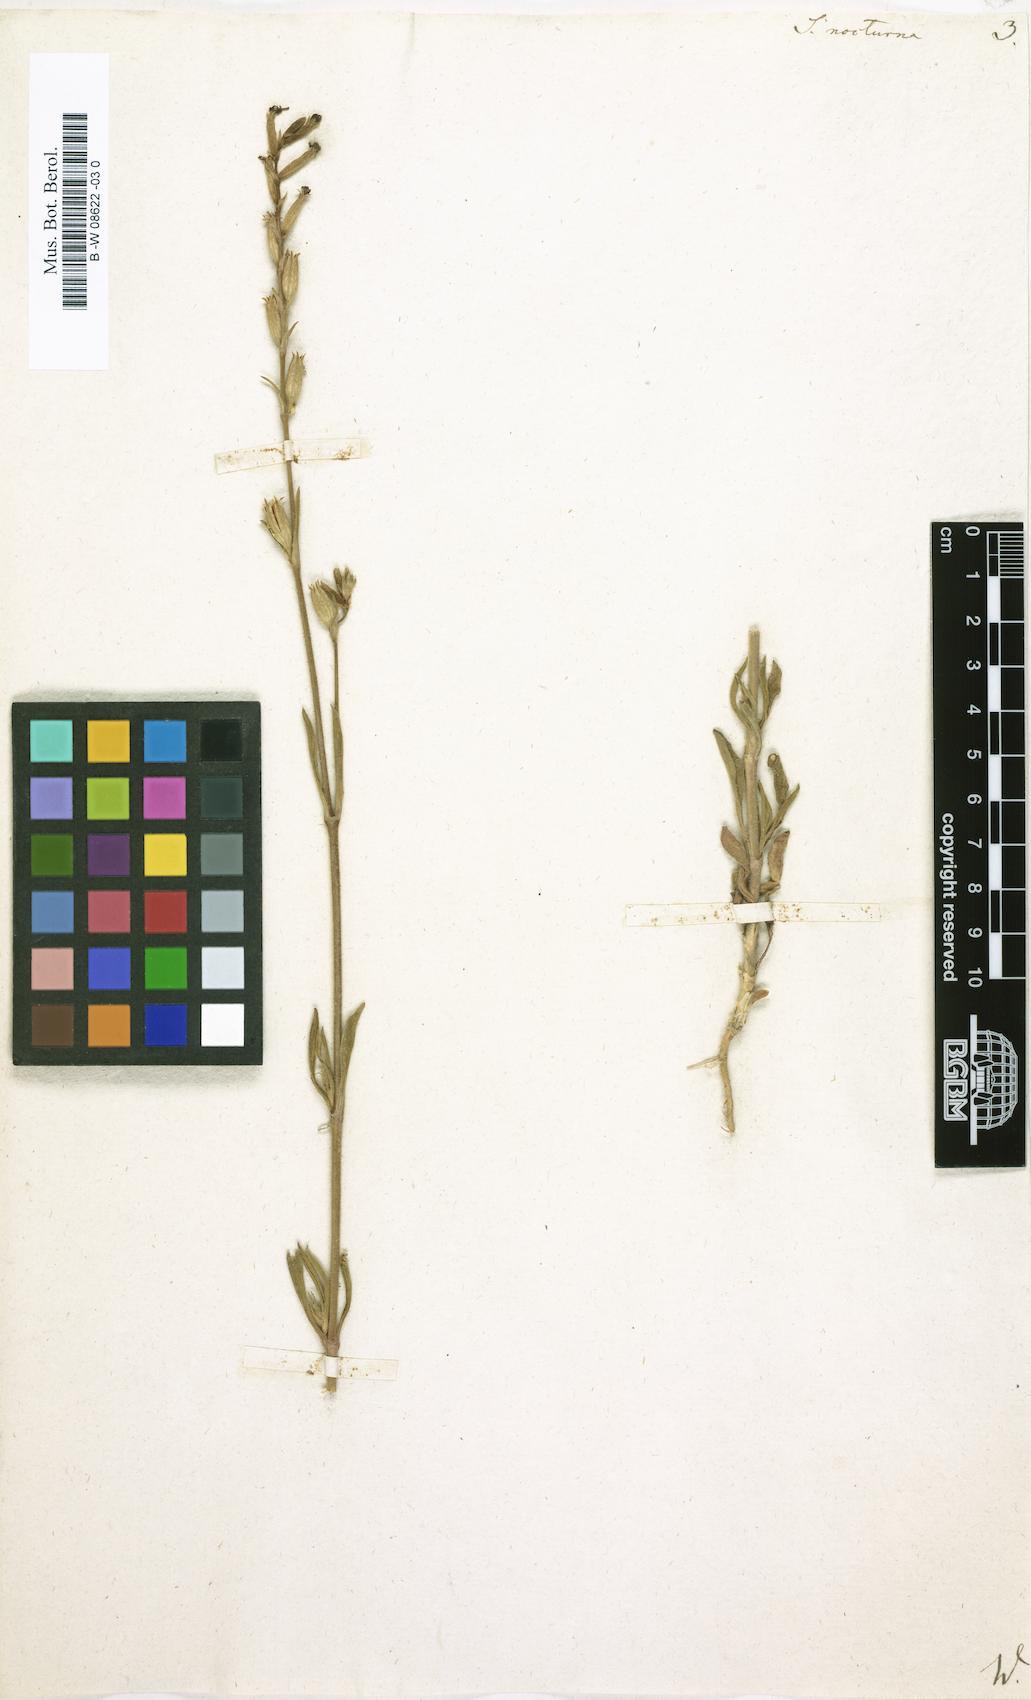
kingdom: Plantae
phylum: Tracheophyta
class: Magnoliopsida
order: Caryophyllales
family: Caryophyllaceae
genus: Silene
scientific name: Silene nocturna
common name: Mediterranean catchfly
